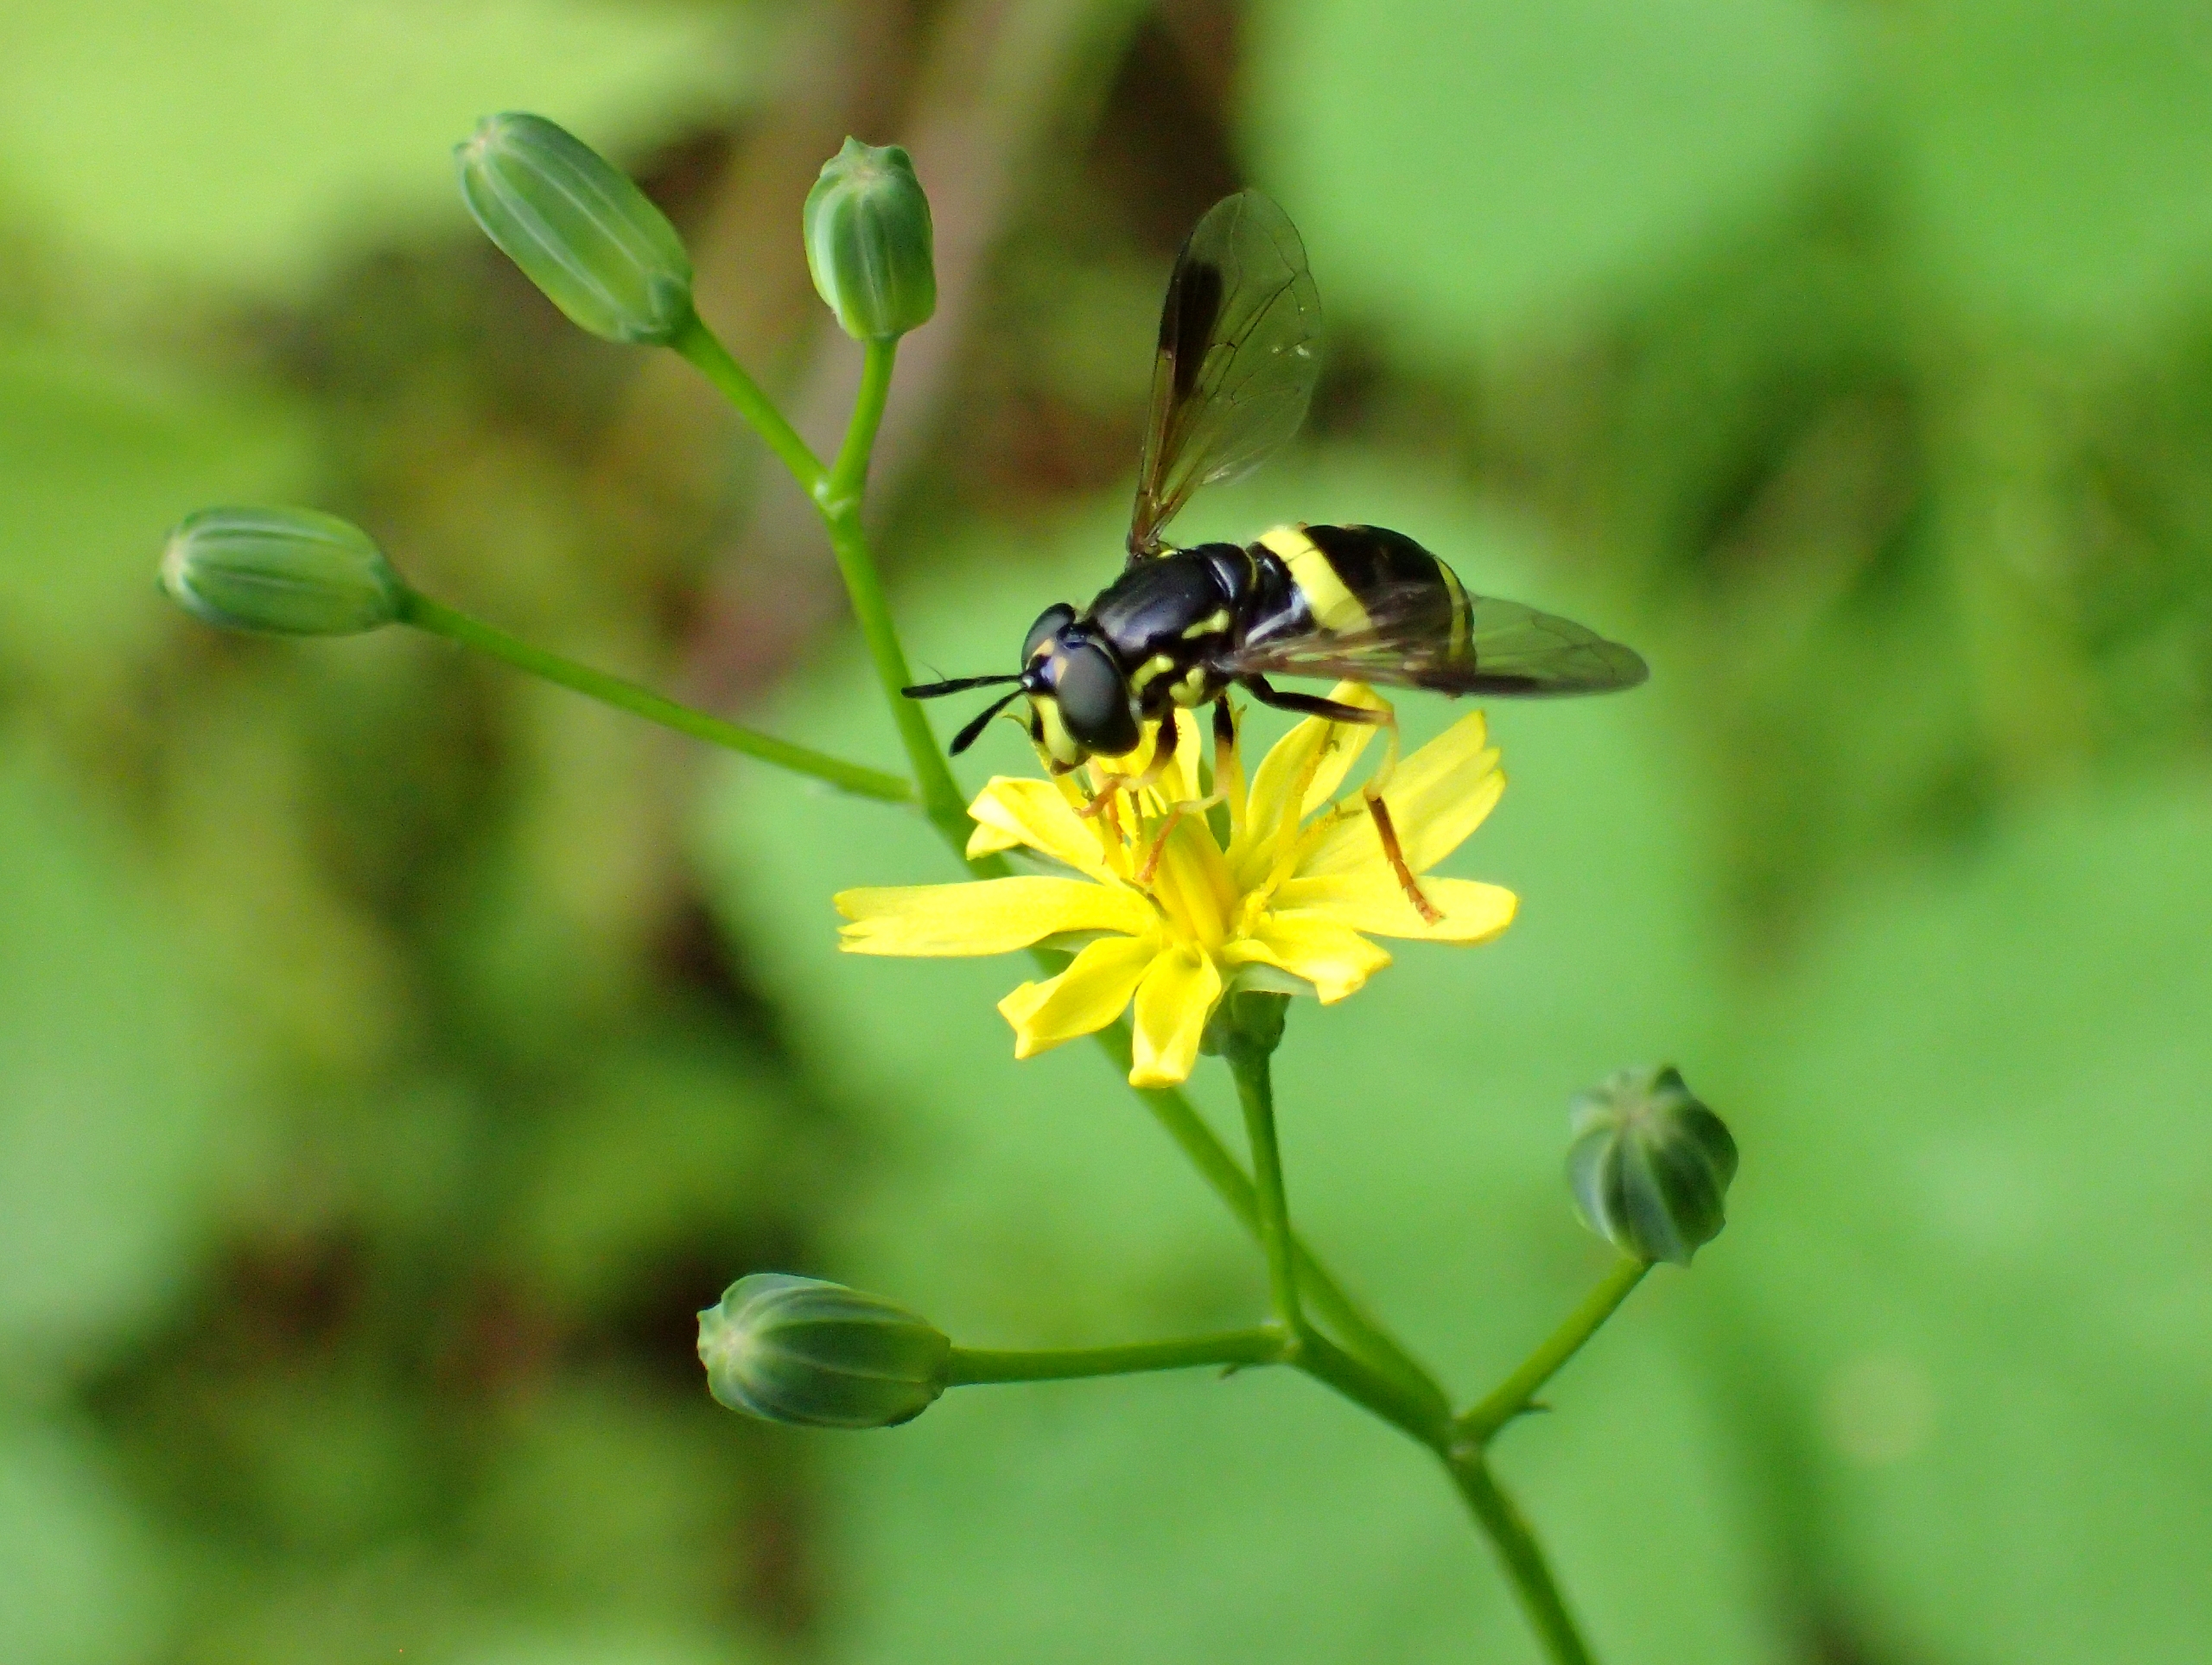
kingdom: Animalia
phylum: Arthropoda
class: Insecta
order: Diptera
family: Syrphidae
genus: Chrysotoxum
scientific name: Chrysotoxum bicincta
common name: Tobåndet hvepsesvirreflue
